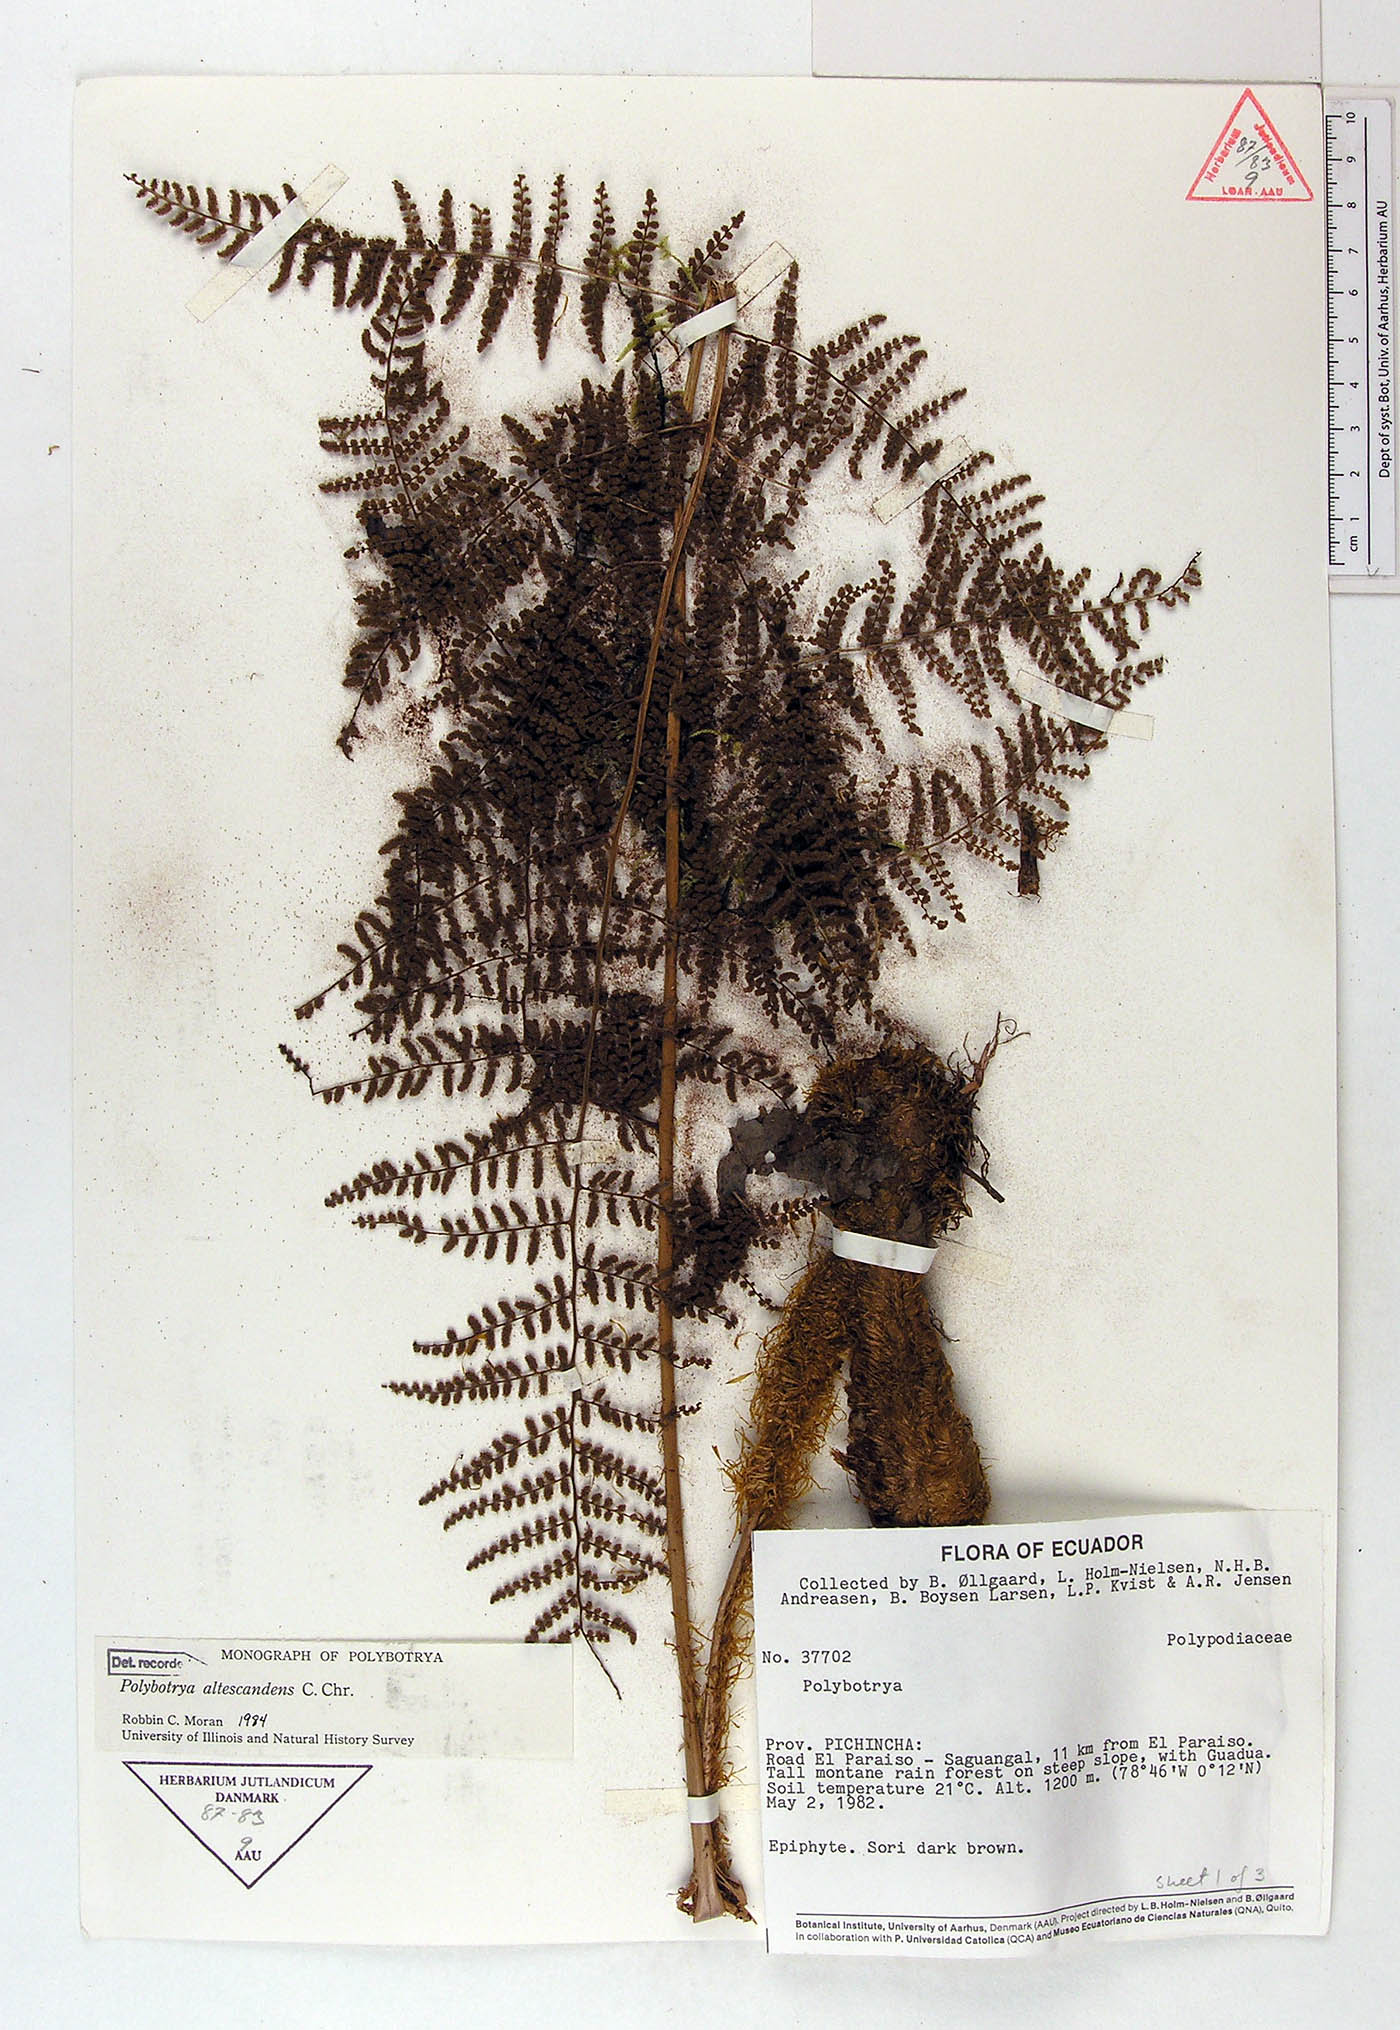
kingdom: Plantae
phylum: Tracheophyta
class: Polypodiopsida
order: Polypodiales
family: Dryopteridaceae
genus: Polybotrya
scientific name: Polybotrya altescandens
